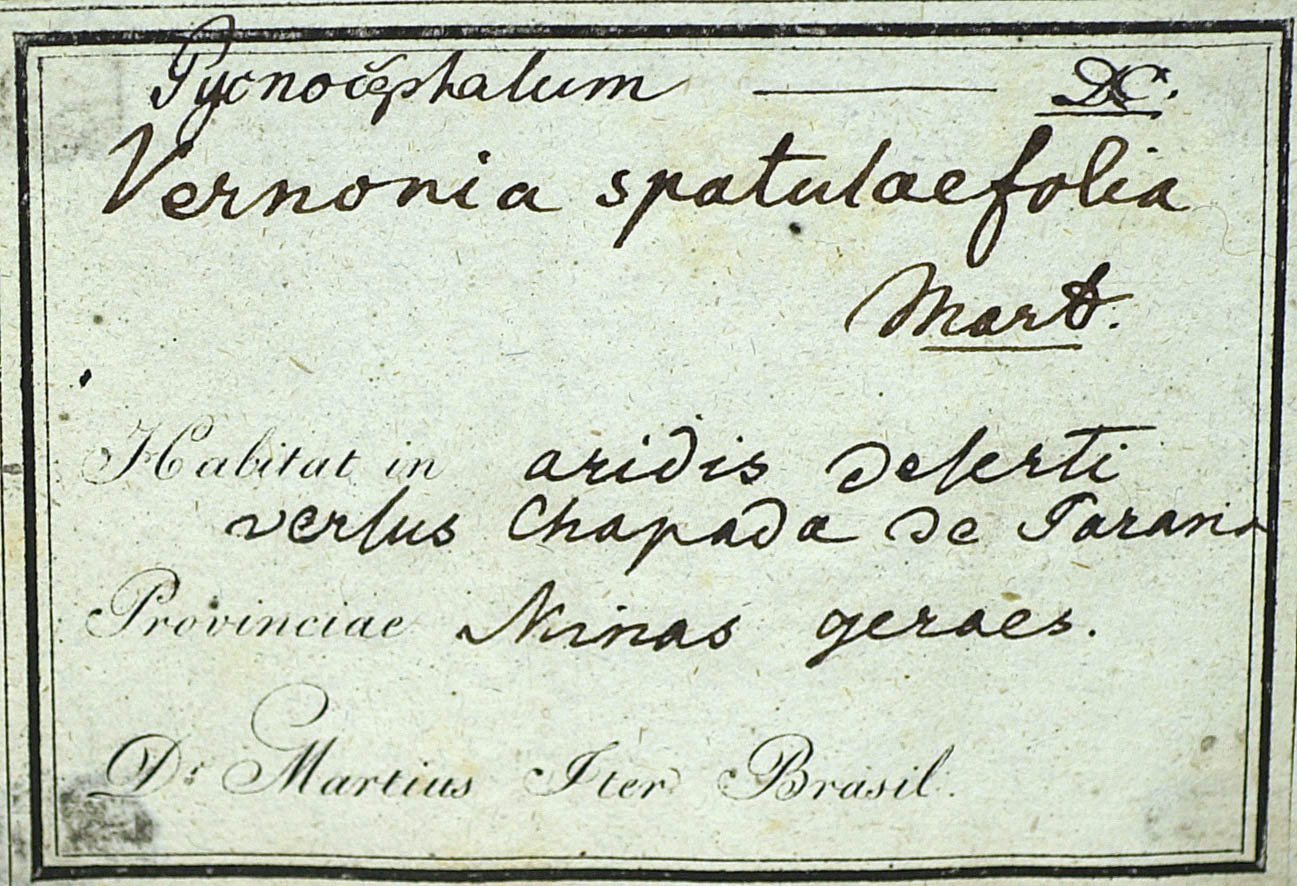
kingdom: Plantae
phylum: Tracheophyta
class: Magnoliopsida
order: Asterales
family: Asteraceae
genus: Chresta
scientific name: Chresta plantaginifolia
